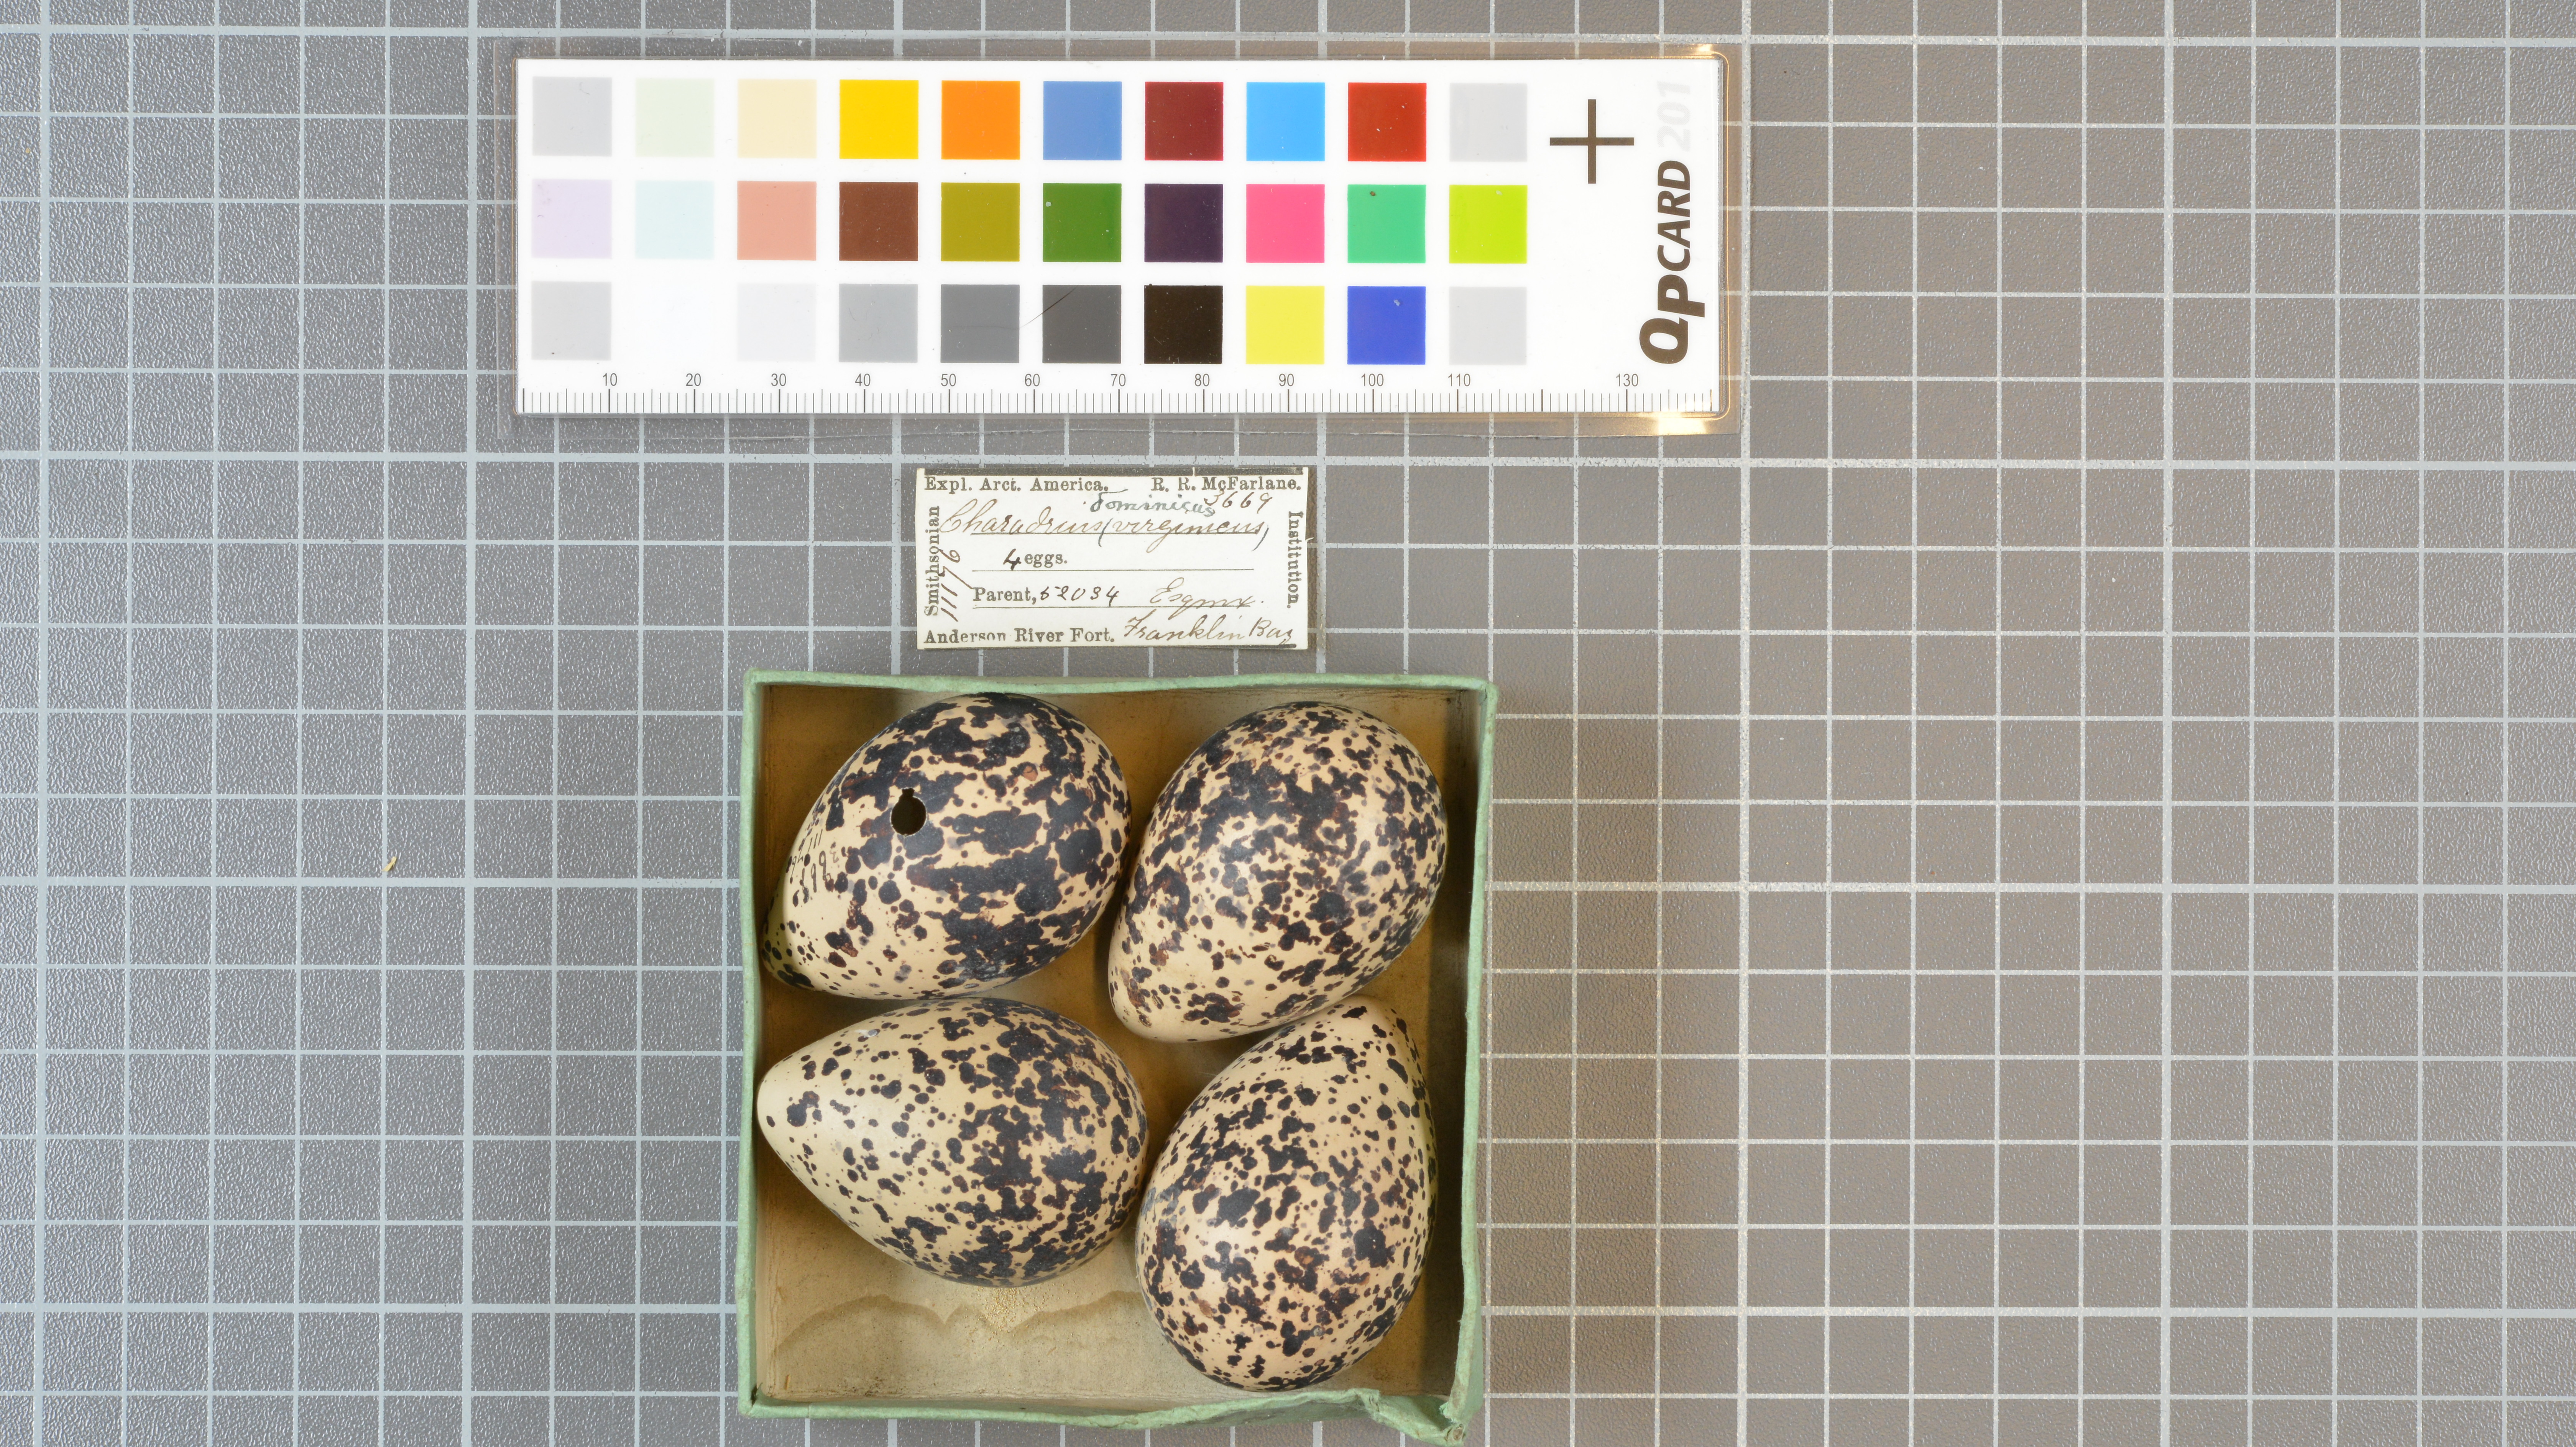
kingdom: Animalia
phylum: Chordata
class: Aves
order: Charadriiformes
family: Charadriidae
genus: Pluvialis
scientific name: Pluvialis dominica
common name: American golden plover
